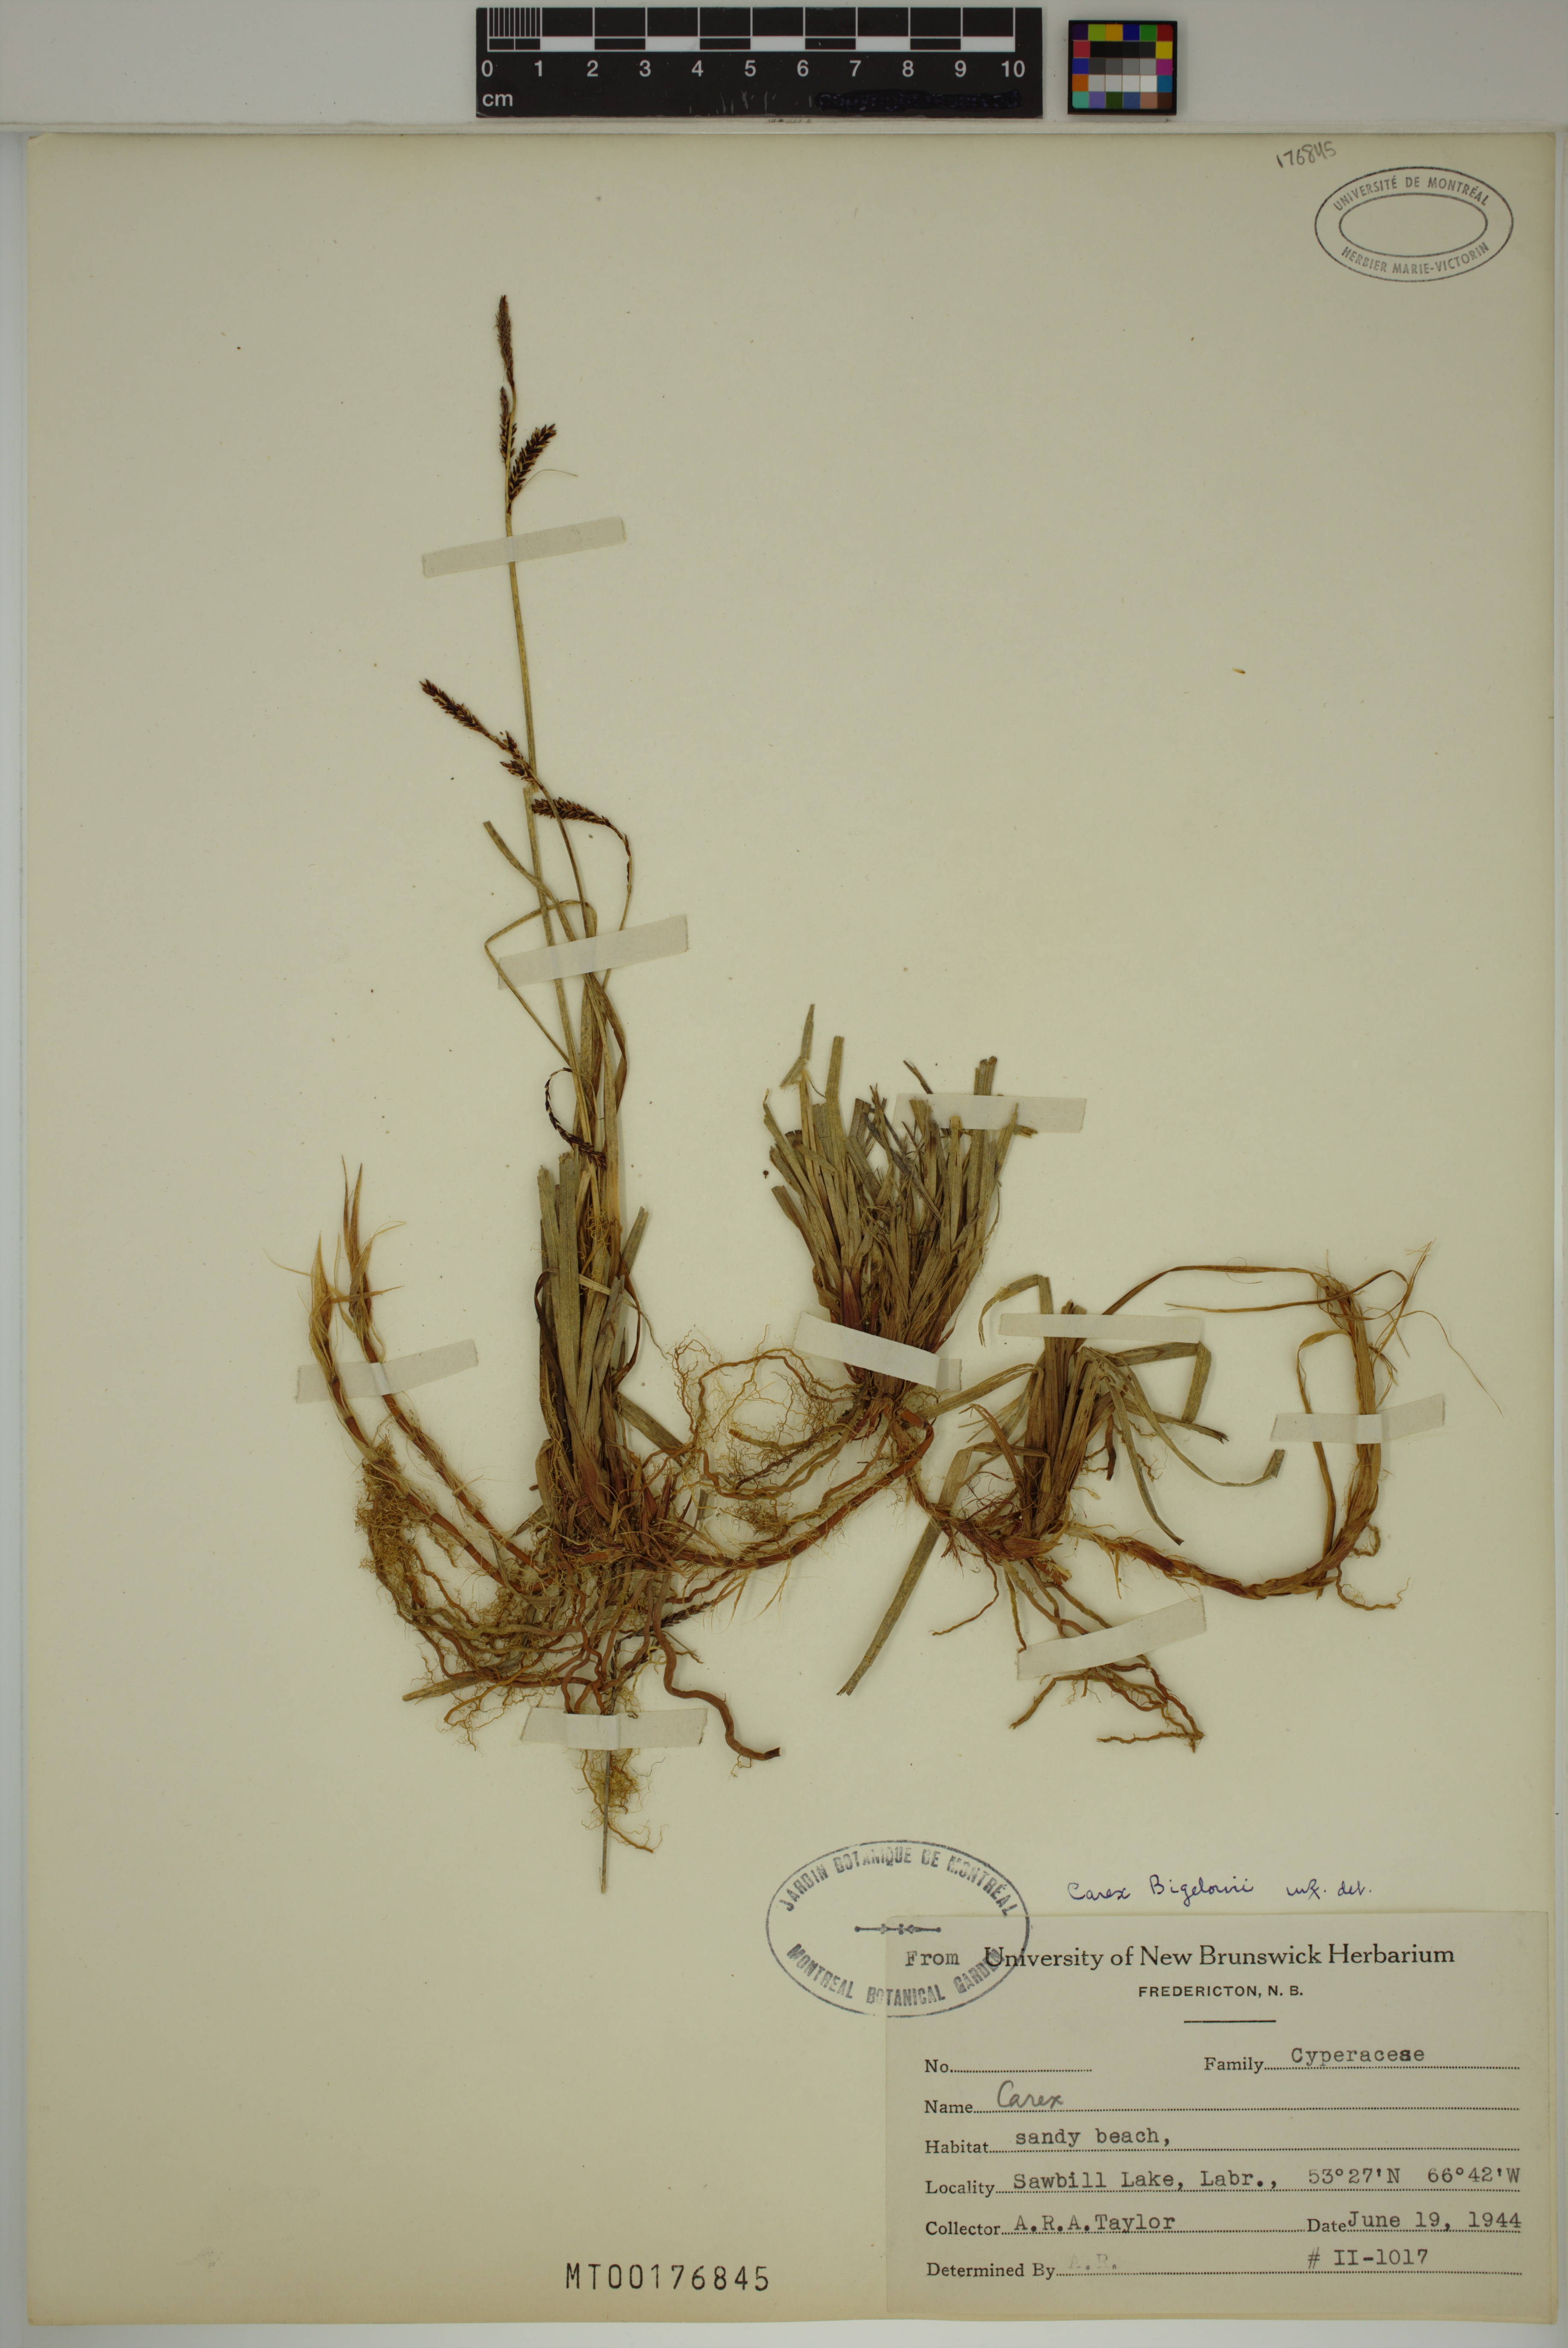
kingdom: Plantae
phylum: Tracheophyta
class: Liliopsida
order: Poales
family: Cyperaceae
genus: Carex
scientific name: Carex bigelowii
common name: Stiff sedge
